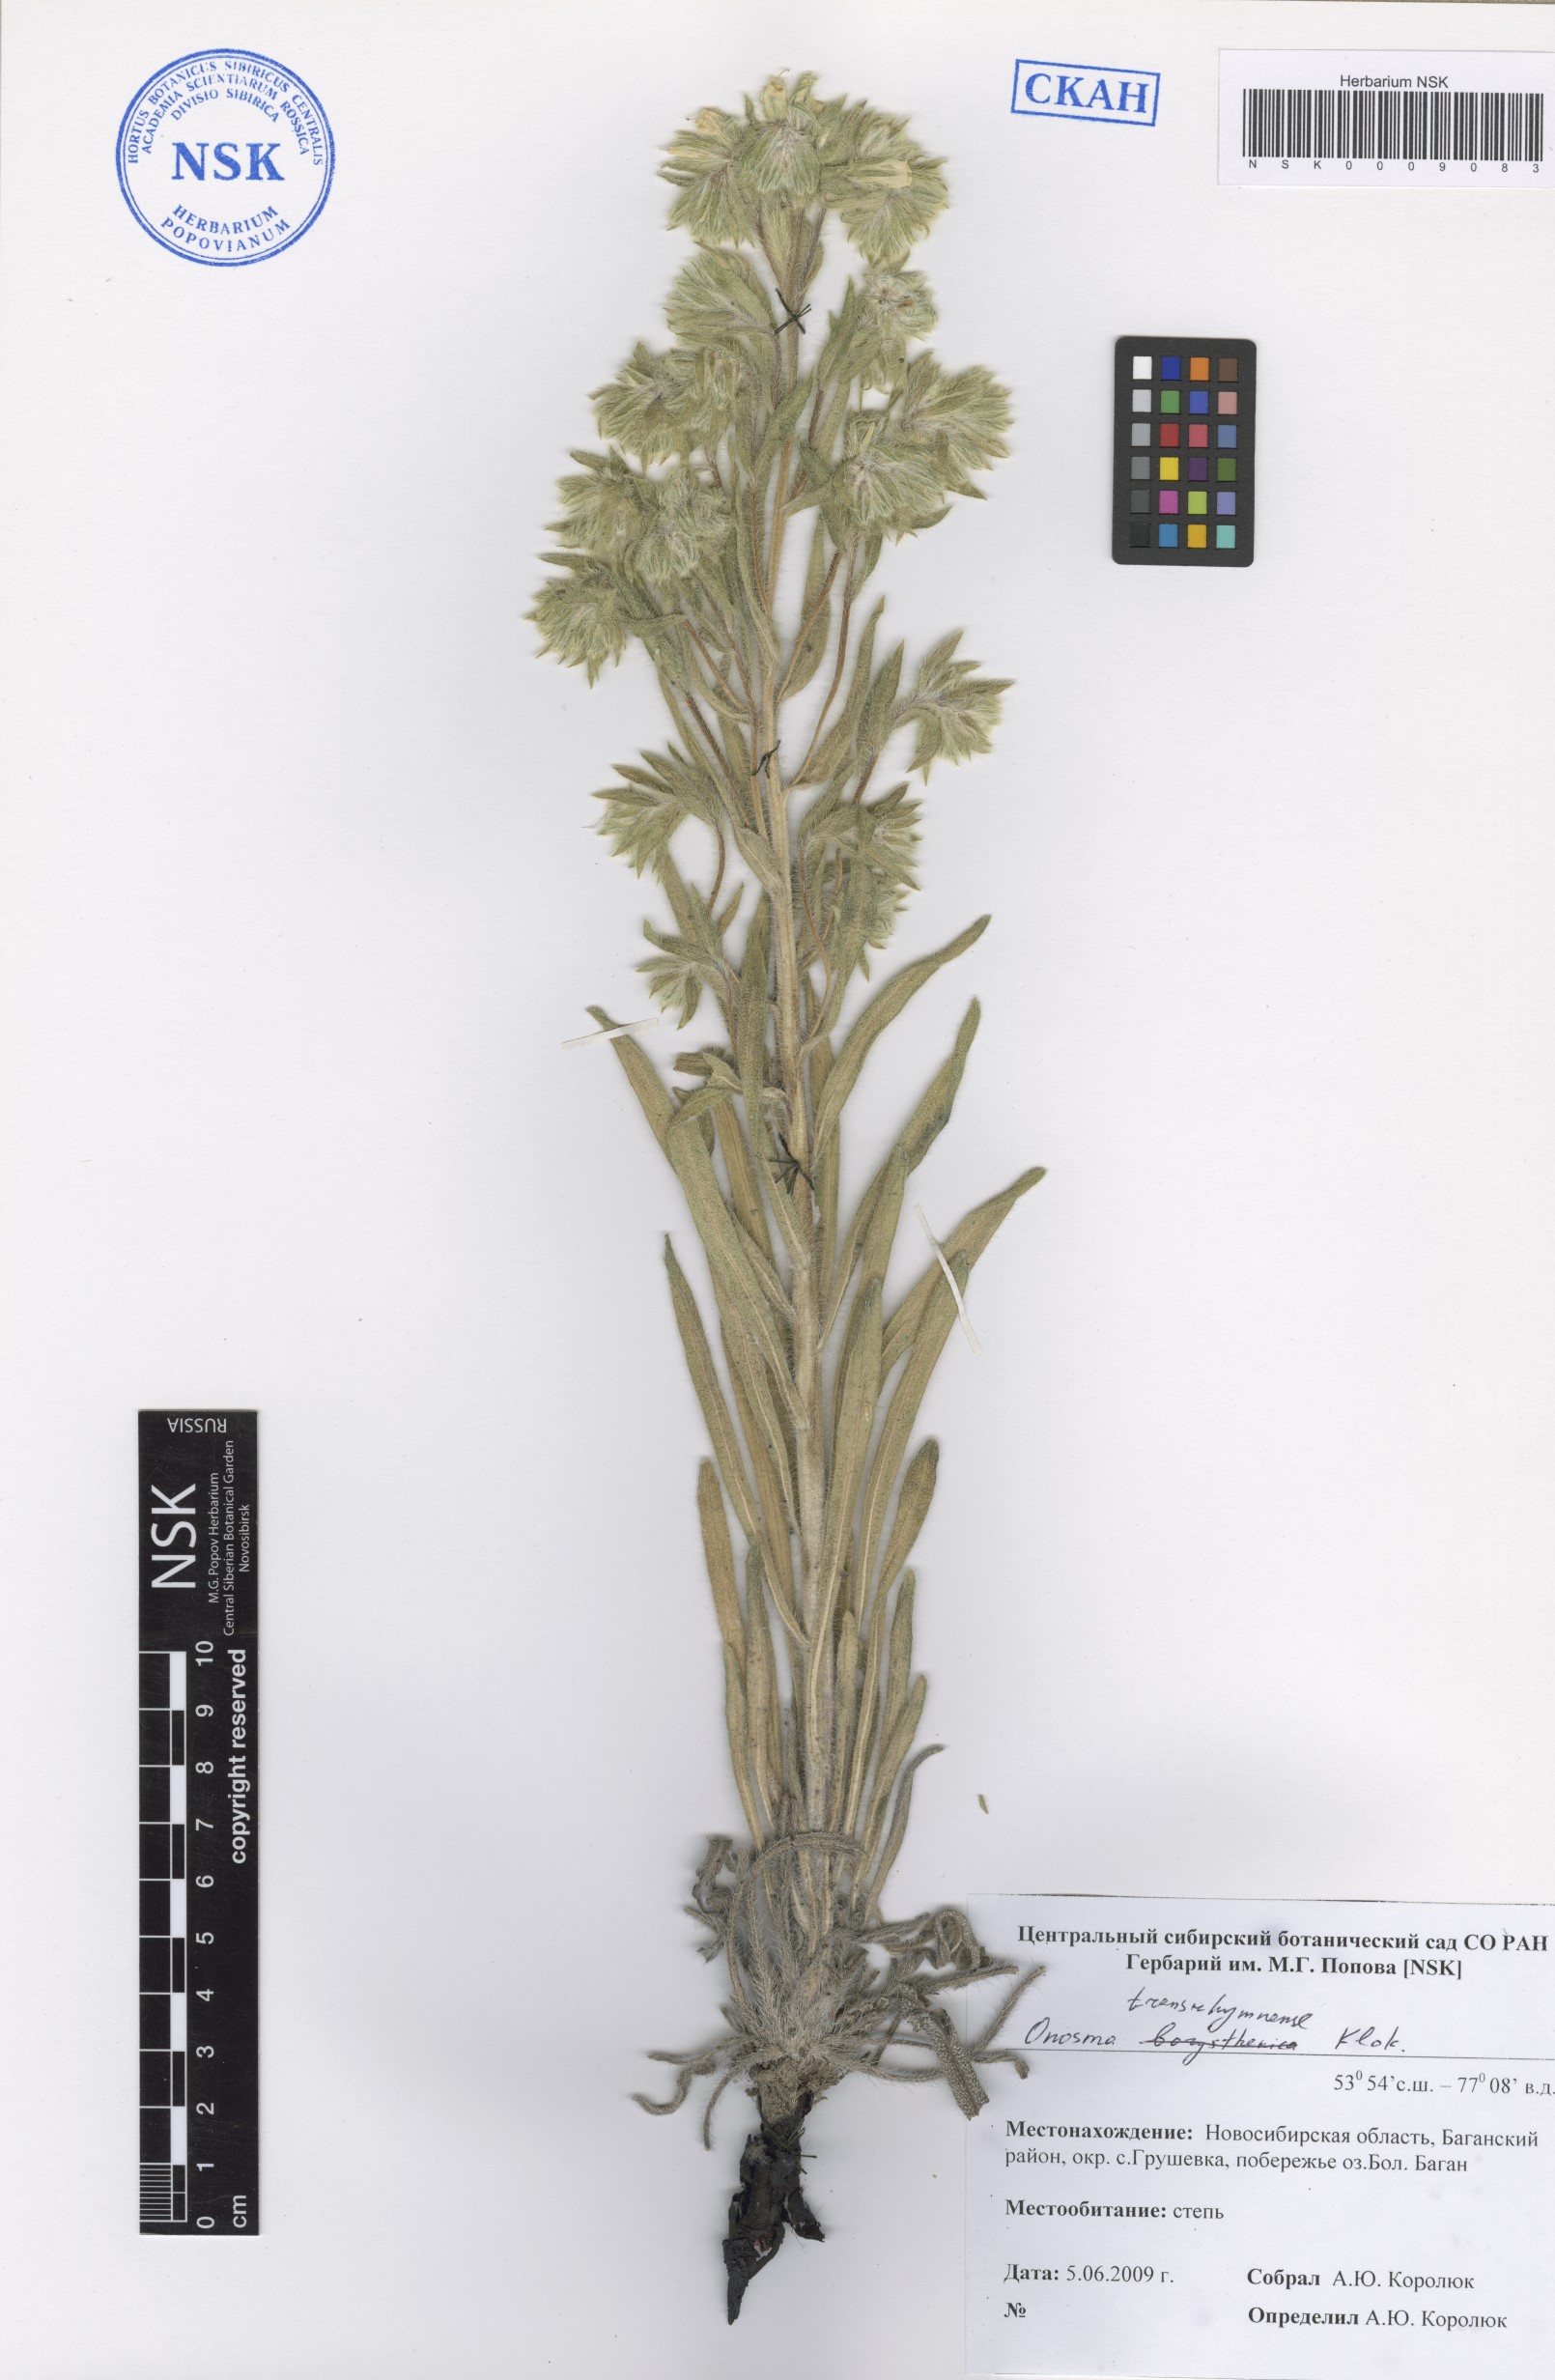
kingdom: Plantae
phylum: Tracheophyta
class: Magnoliopsida
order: Boraginales
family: Boraginaceae
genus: Onosma
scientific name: Onosma transrhymnense
